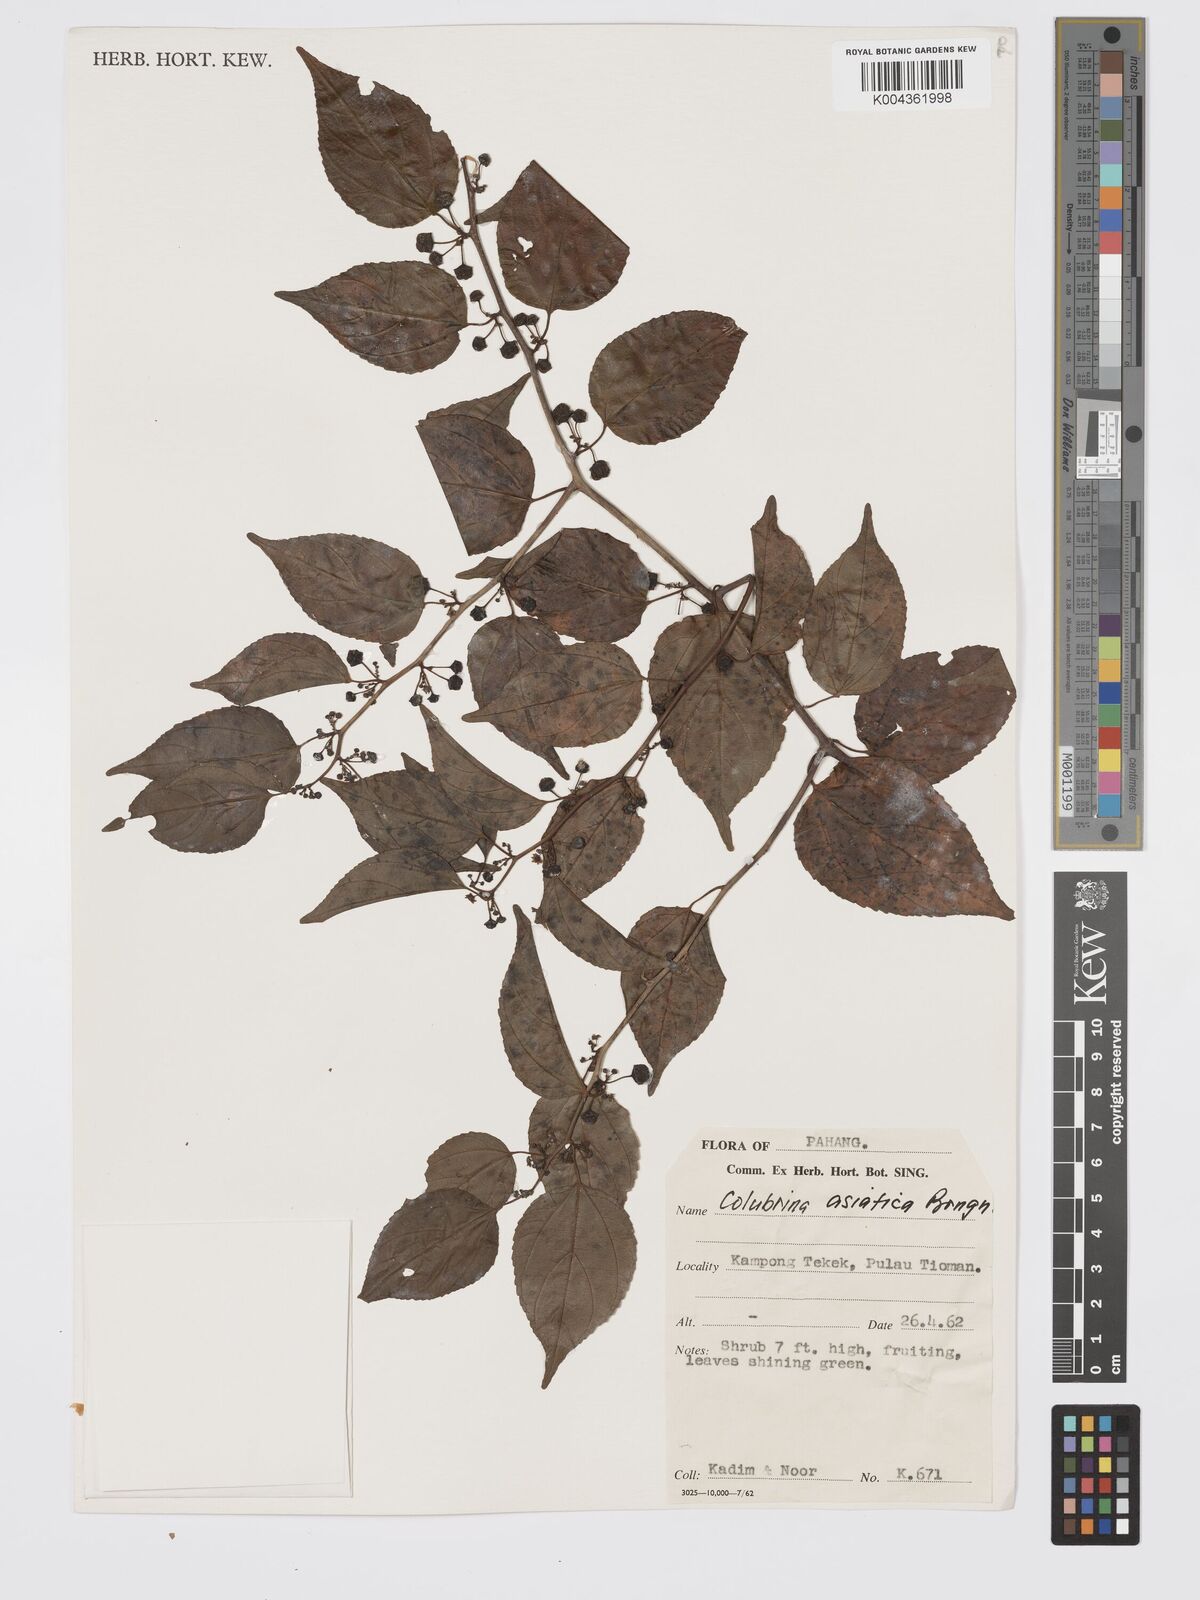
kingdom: Plantae
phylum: Tracheophyta
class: Magnoliopsida
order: Rosales
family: Rhamnaceae
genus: Colubrina
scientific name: Colubrina asiatica
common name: Asian nakedwood
